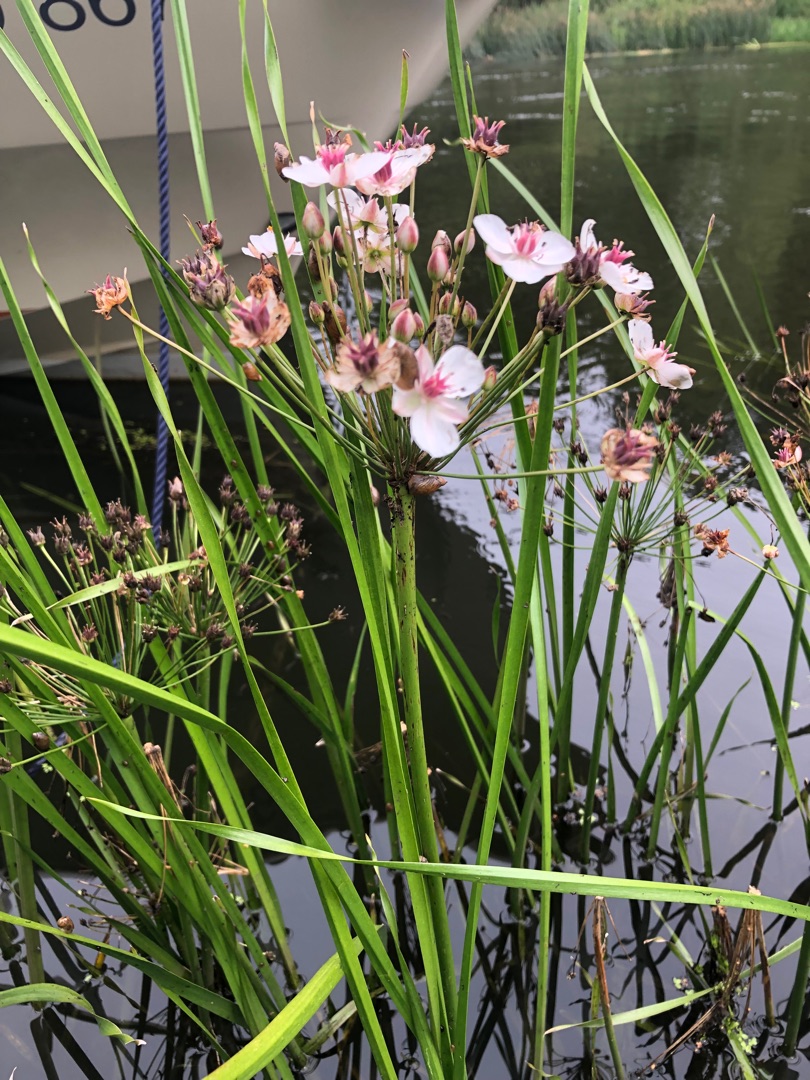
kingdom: Plantae
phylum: Tracheophyta
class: Liliopsida
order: Alismatales
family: Butomaceae
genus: Butomus
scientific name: Butomus umbellatus
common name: Brudelys
